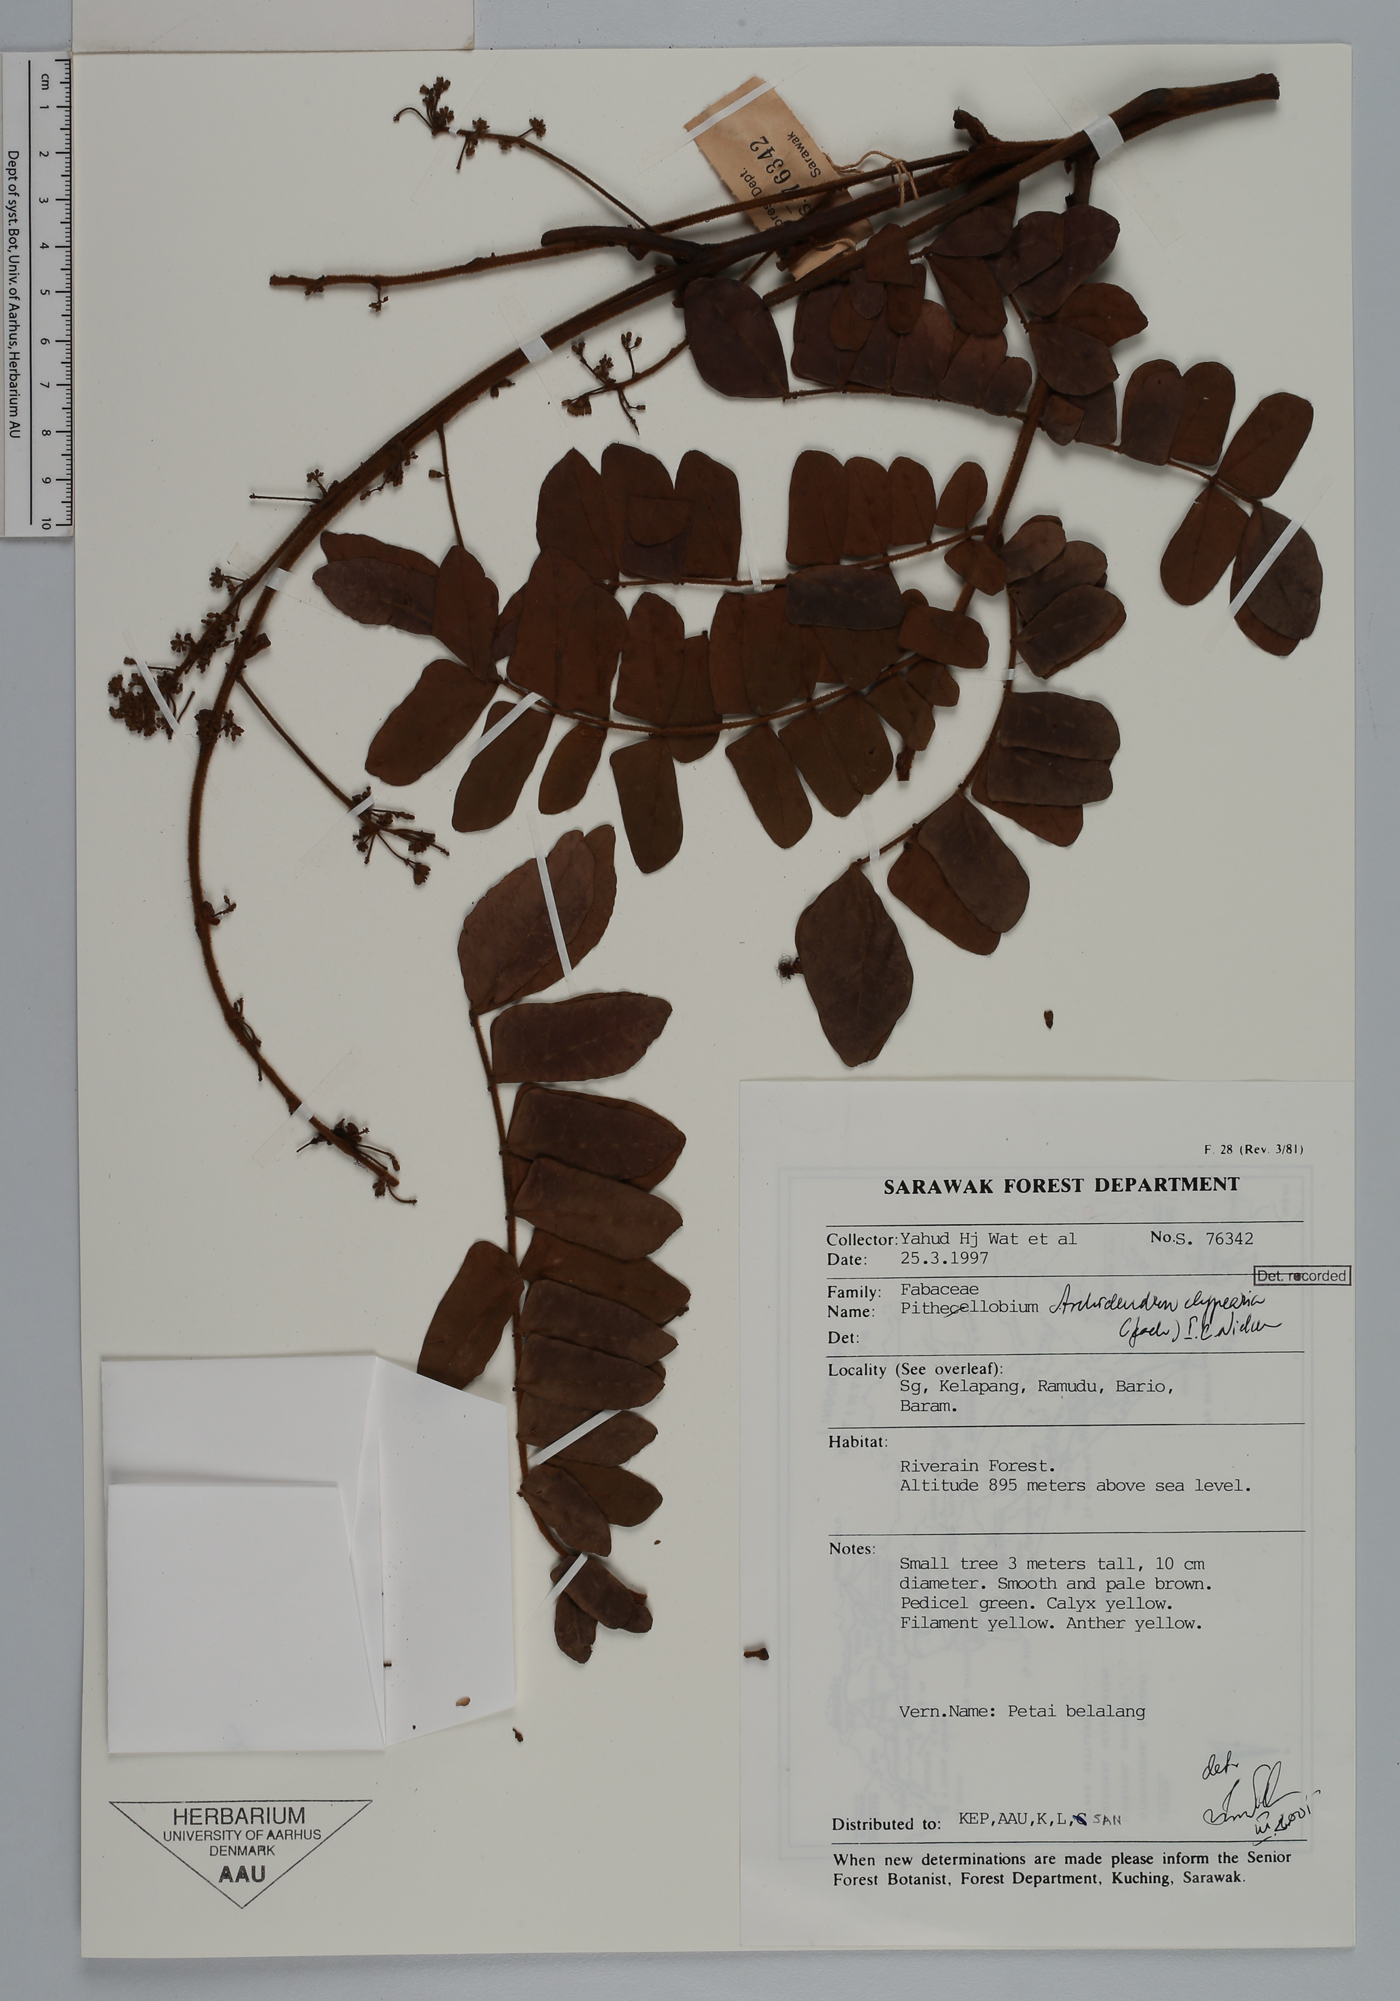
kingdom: Plantae
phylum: Tracheophyta
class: Magnoliopsida
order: Fabales
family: Fabaceae
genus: Archidendron
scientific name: Archidendron clypearia
